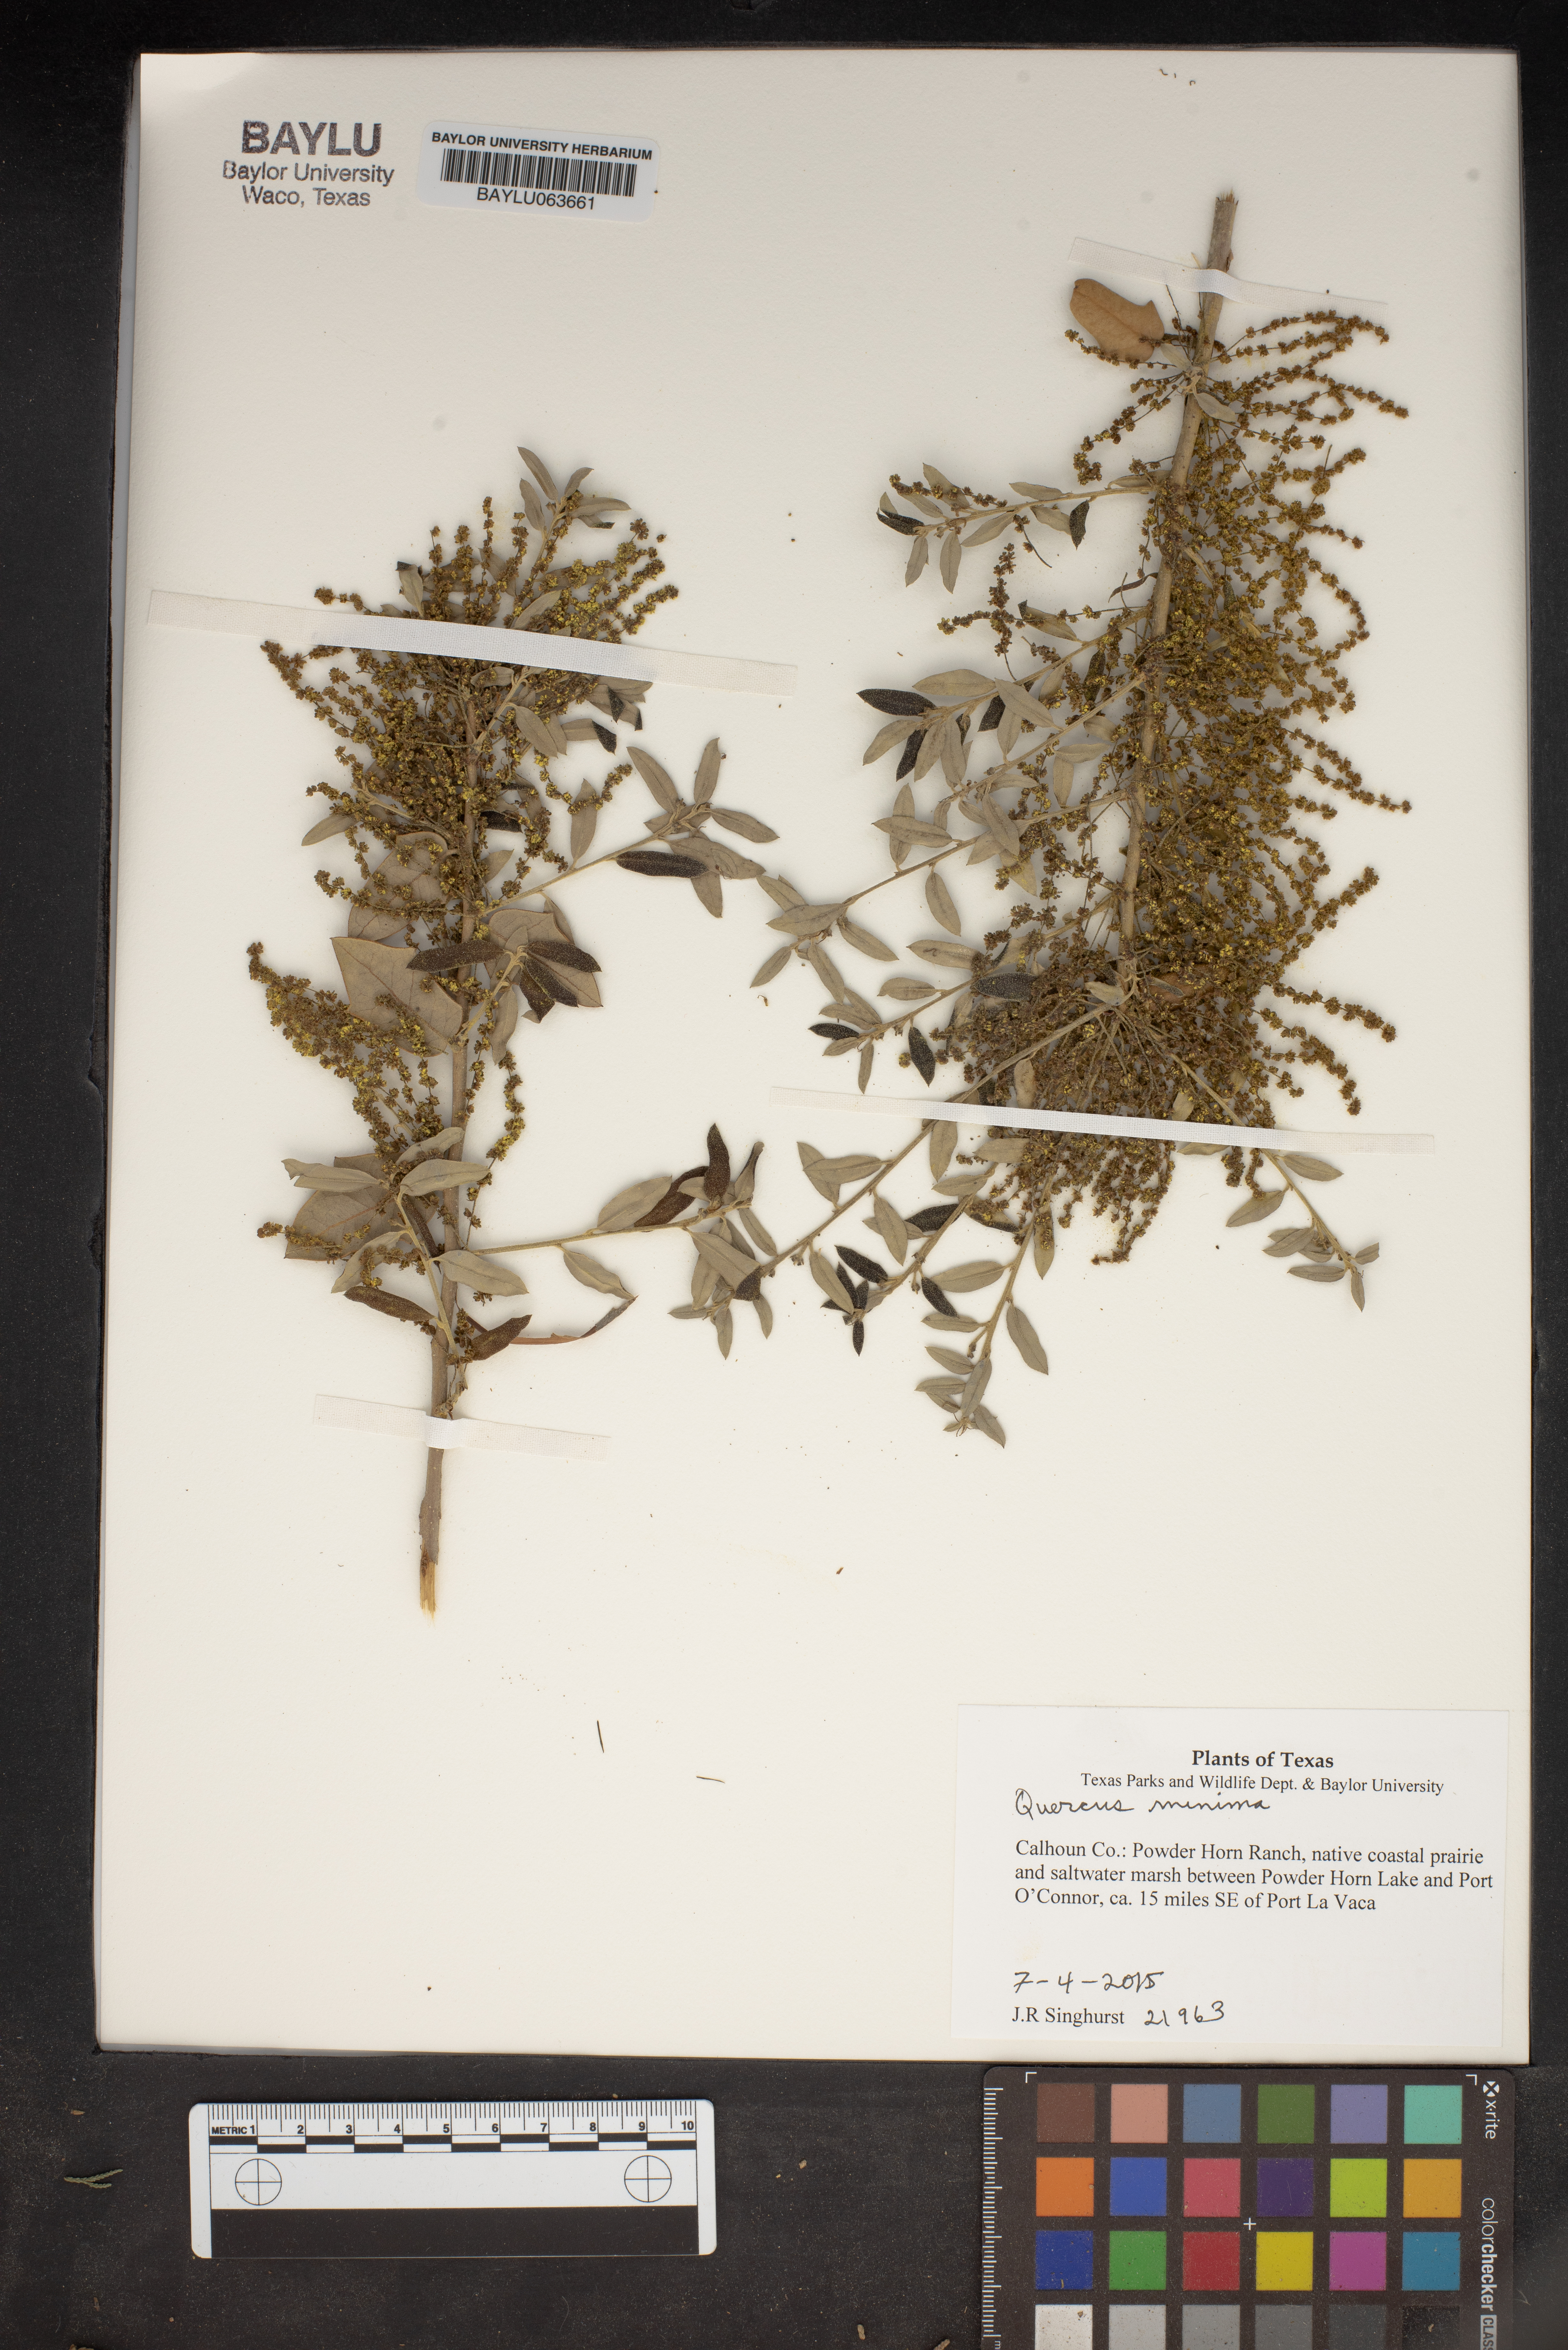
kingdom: Plantae
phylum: Tracheophyta
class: Magnoliopsida
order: Fagales
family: Fagaceae
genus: Quercus
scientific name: Quercus minima
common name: Dwarf live oak
